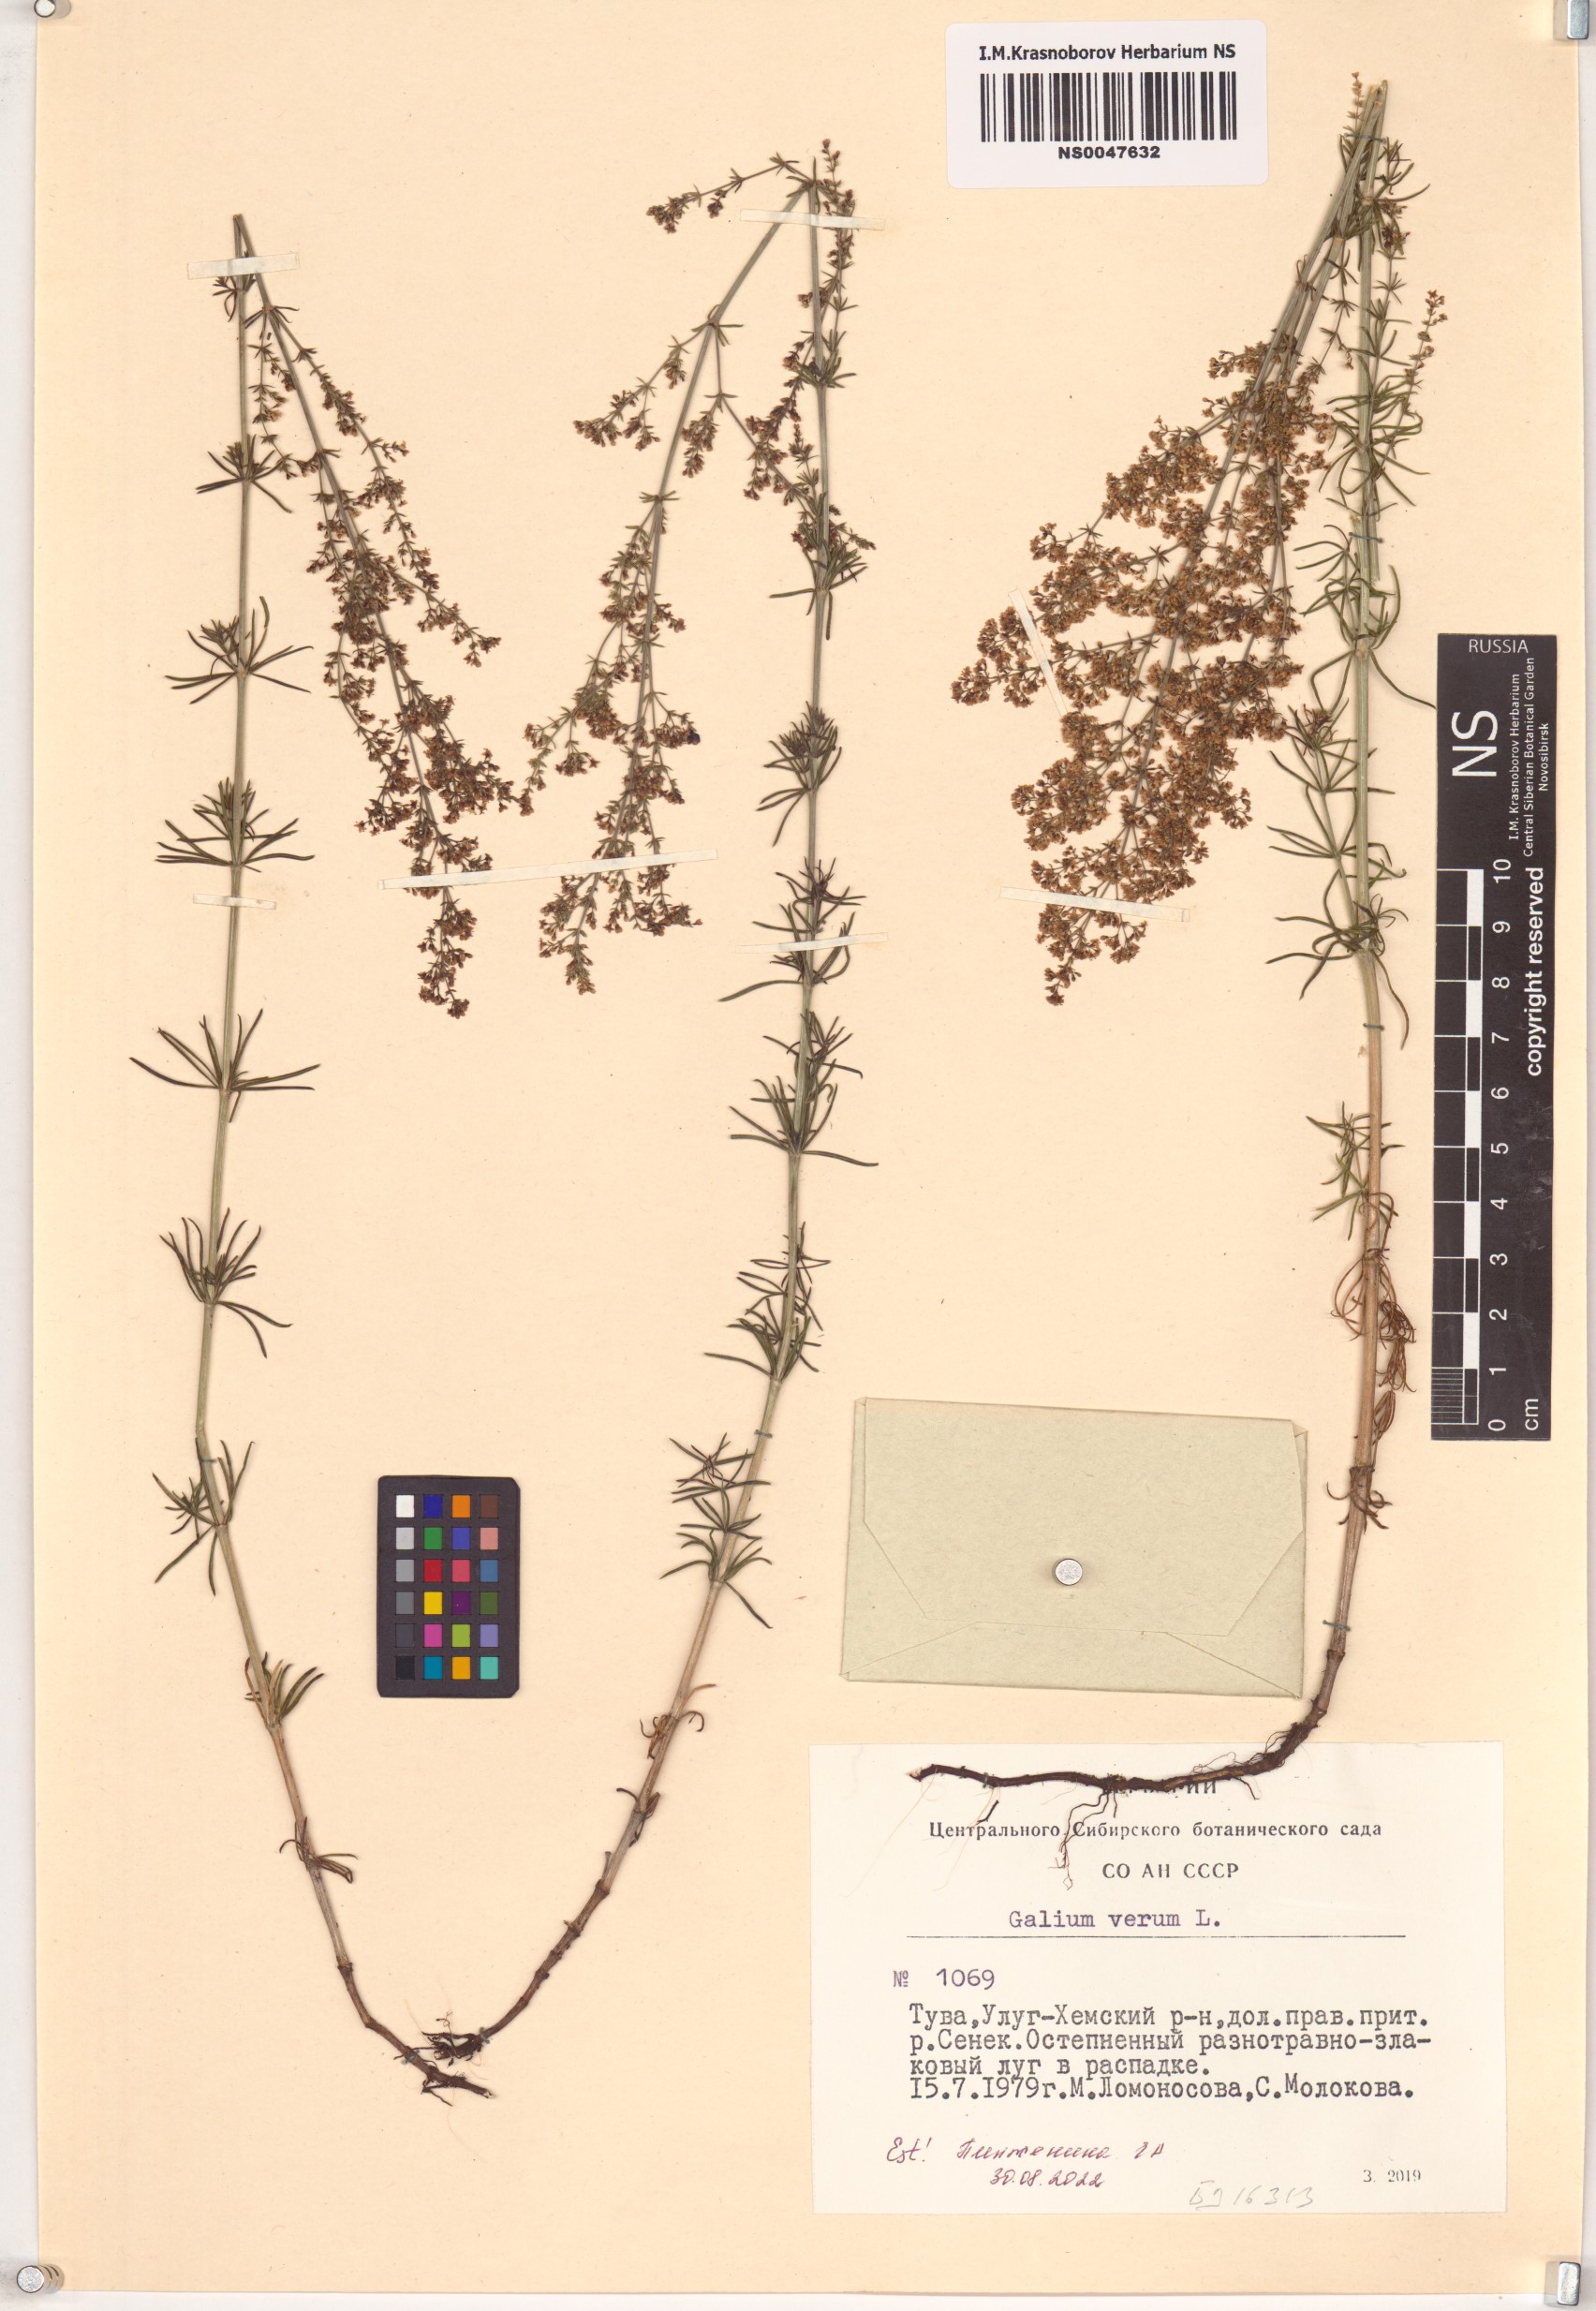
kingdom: Plantae
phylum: Tracheophyta
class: Magnoliopsida
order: Gentianales
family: Rubiaceae
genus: Galium
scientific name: Galium verum
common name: Lady's bedstraw
